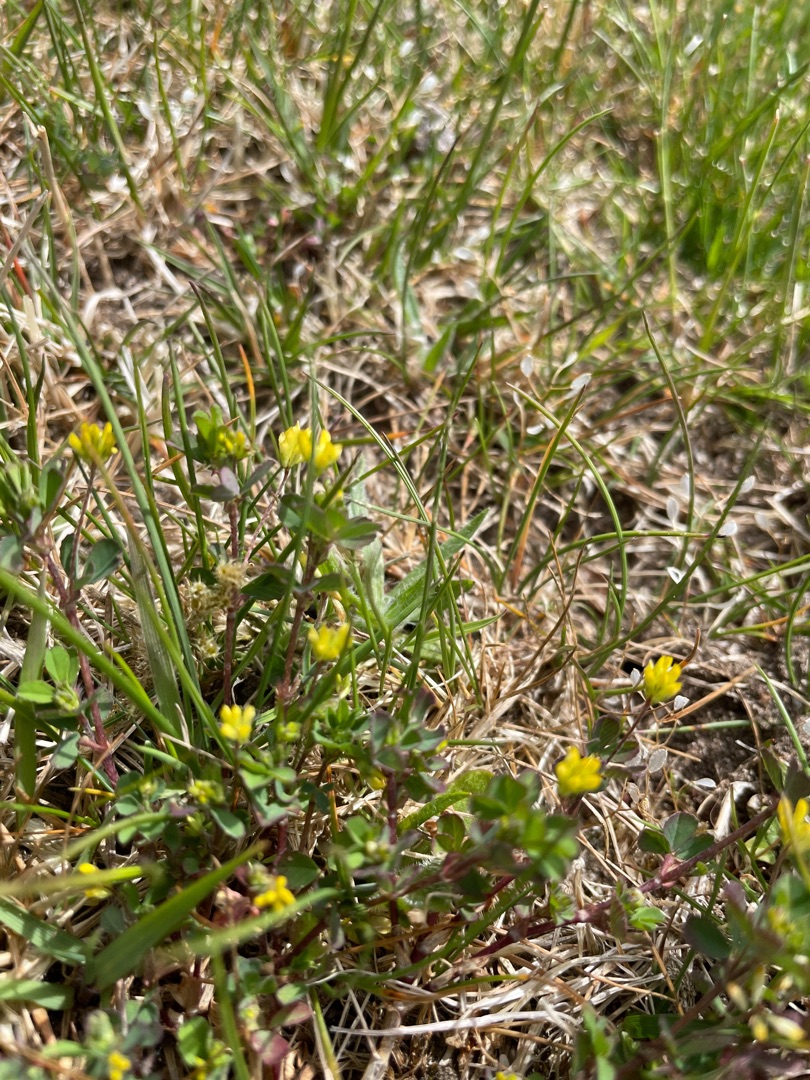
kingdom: Plantae
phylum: Tracheophyta
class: Magnoliopsida
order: Fabales
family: Fabaceae
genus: Trifolium
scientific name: Trifolium dubium
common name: Fin kløver
